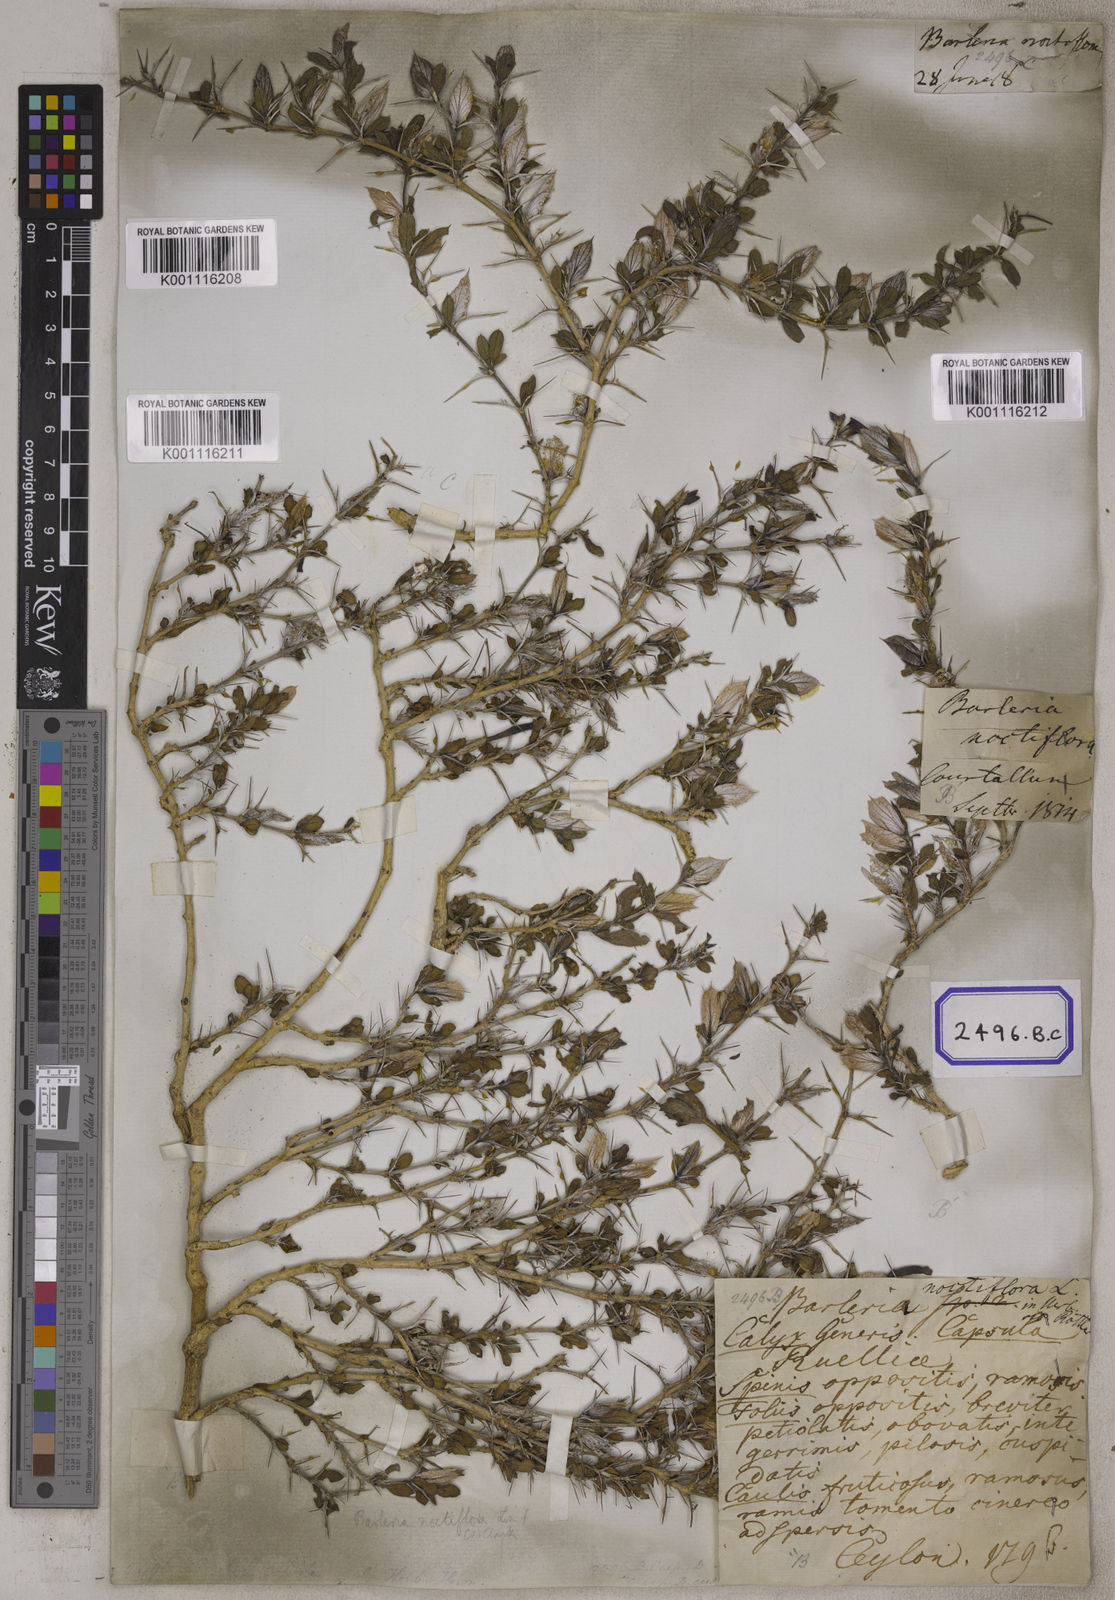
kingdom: Plantae
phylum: Tracheophyta
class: Magnoliopsida
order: Lamiales
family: Acanthaceae
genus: Barleria
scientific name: Barleria noctiflora
